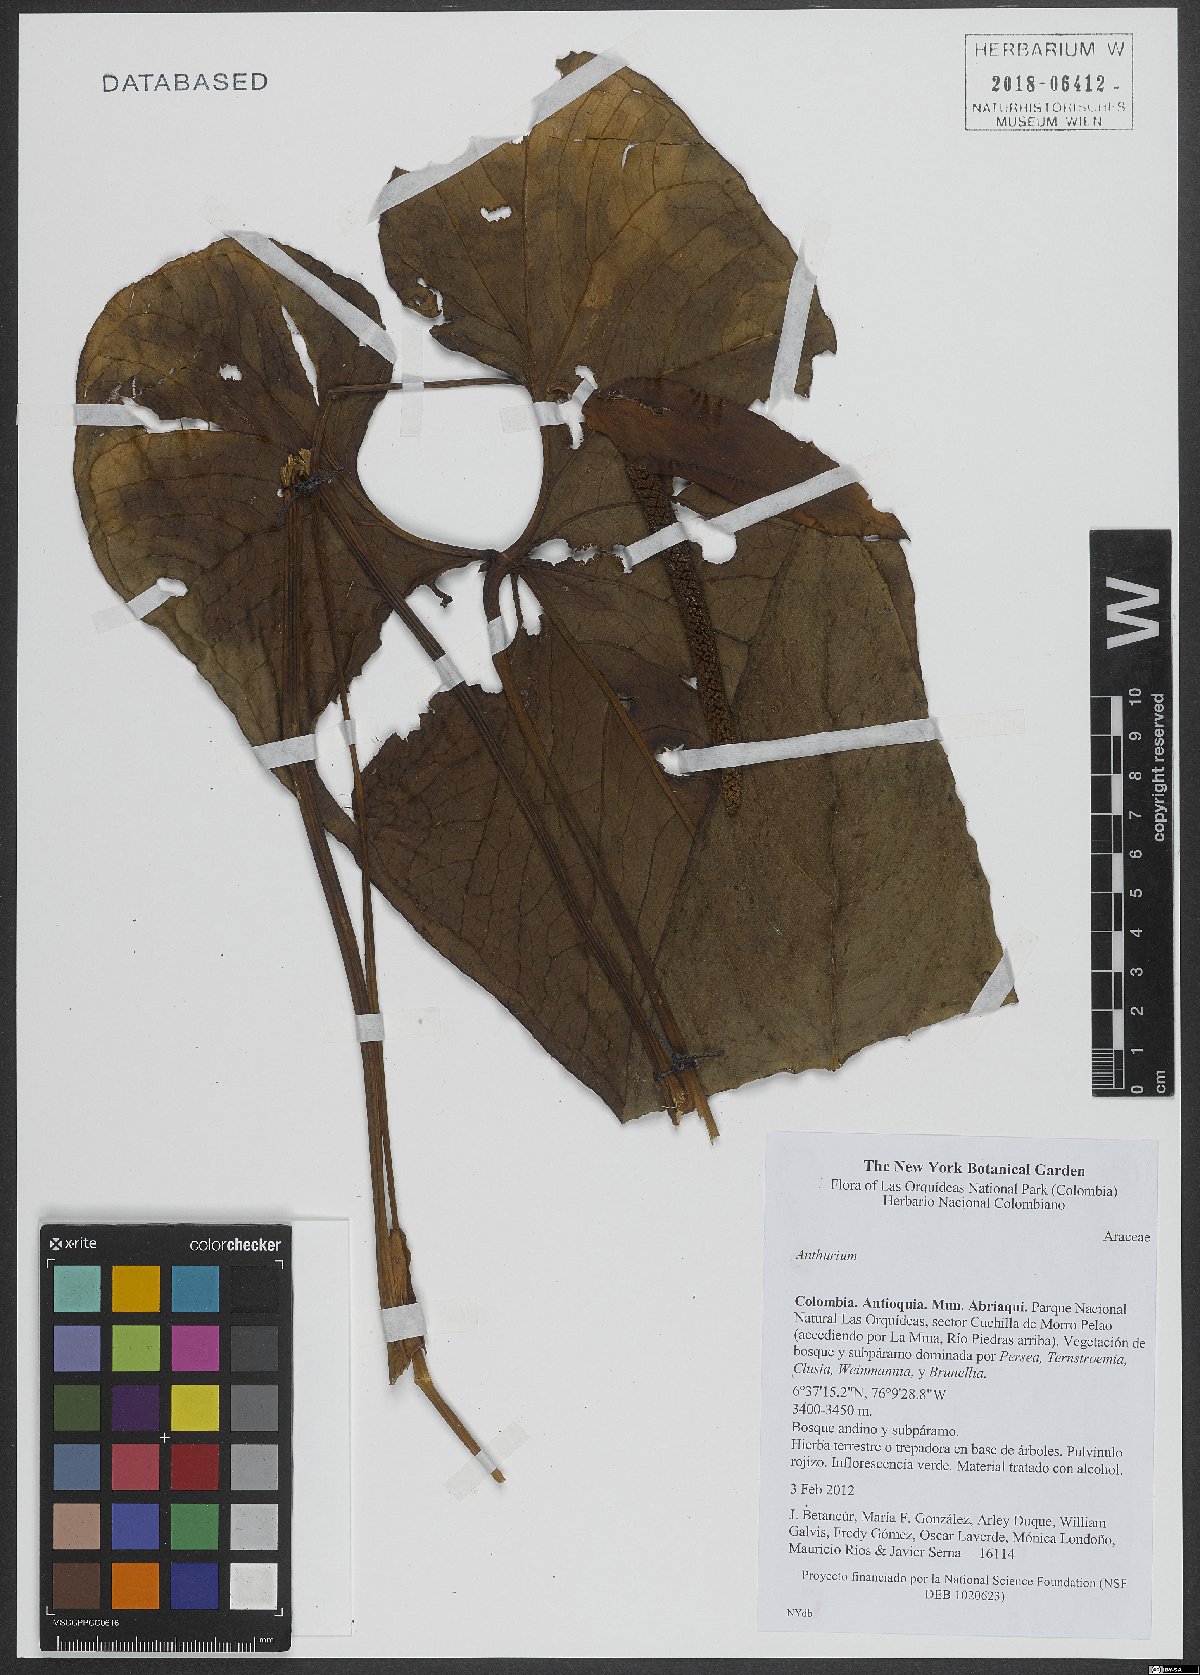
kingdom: Plantae
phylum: Tracheophyta
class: Liliopsida
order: Alismatales
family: Araceae
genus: Anthurium
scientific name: Anthurium
